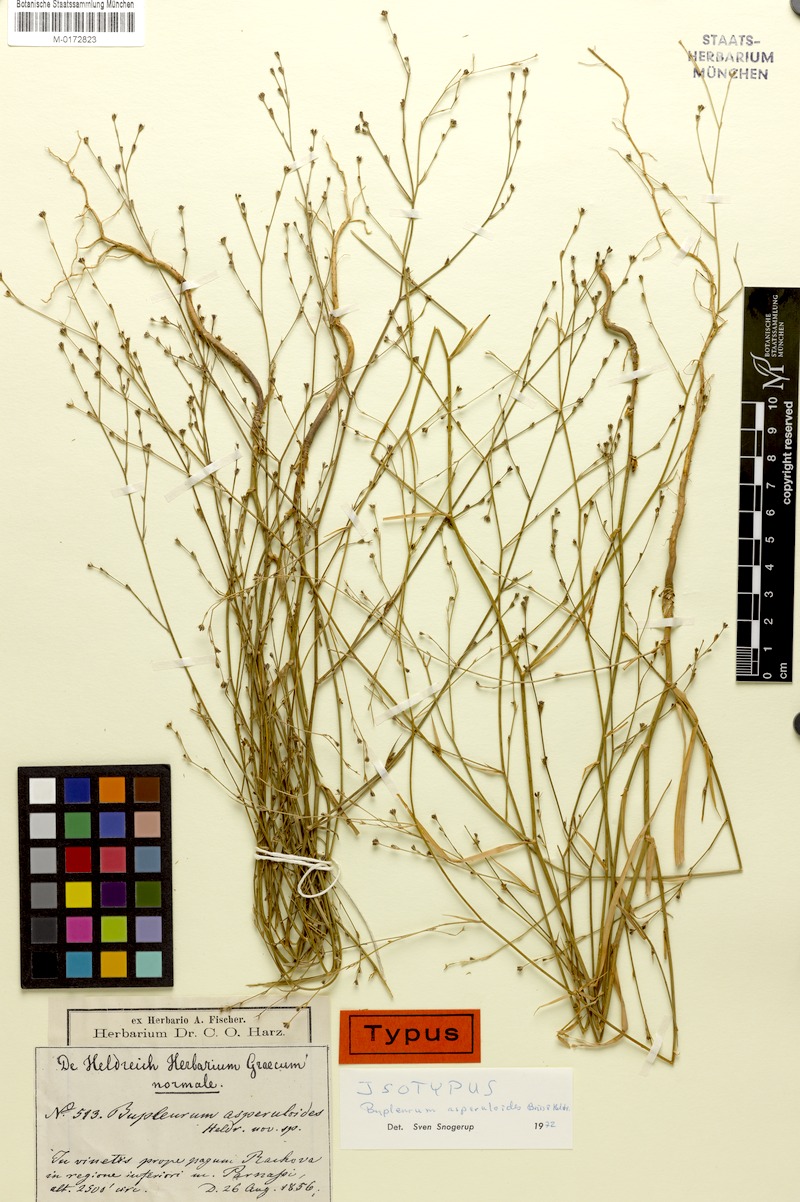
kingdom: Plantae
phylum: Tracheophyta
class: Magnoliopsida
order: Apiales
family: Apiaceae
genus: Bupleurum
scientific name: Bupleurum asperuloides
